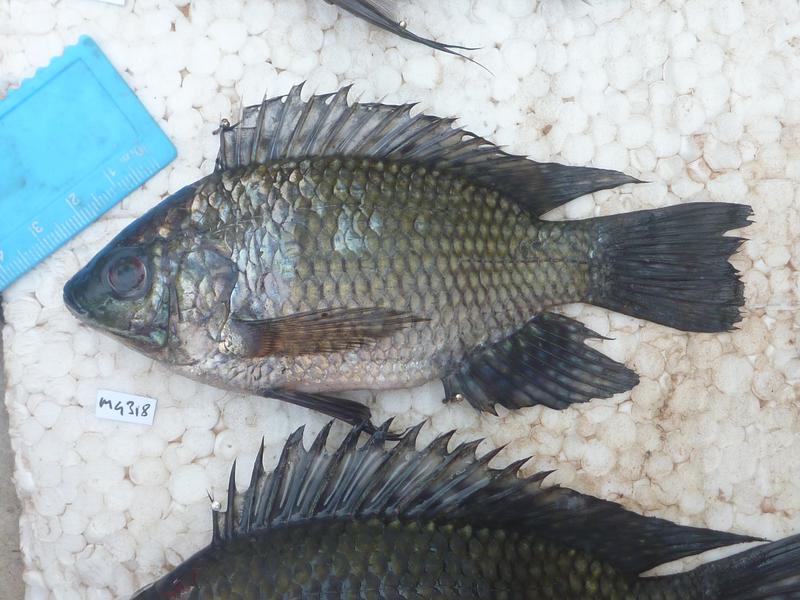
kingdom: Animalia
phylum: Chordata
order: Perciformes
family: Cichlidae
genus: Oreochromis
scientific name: Oreochromis leucostictus
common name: Blue spotted tilapia
